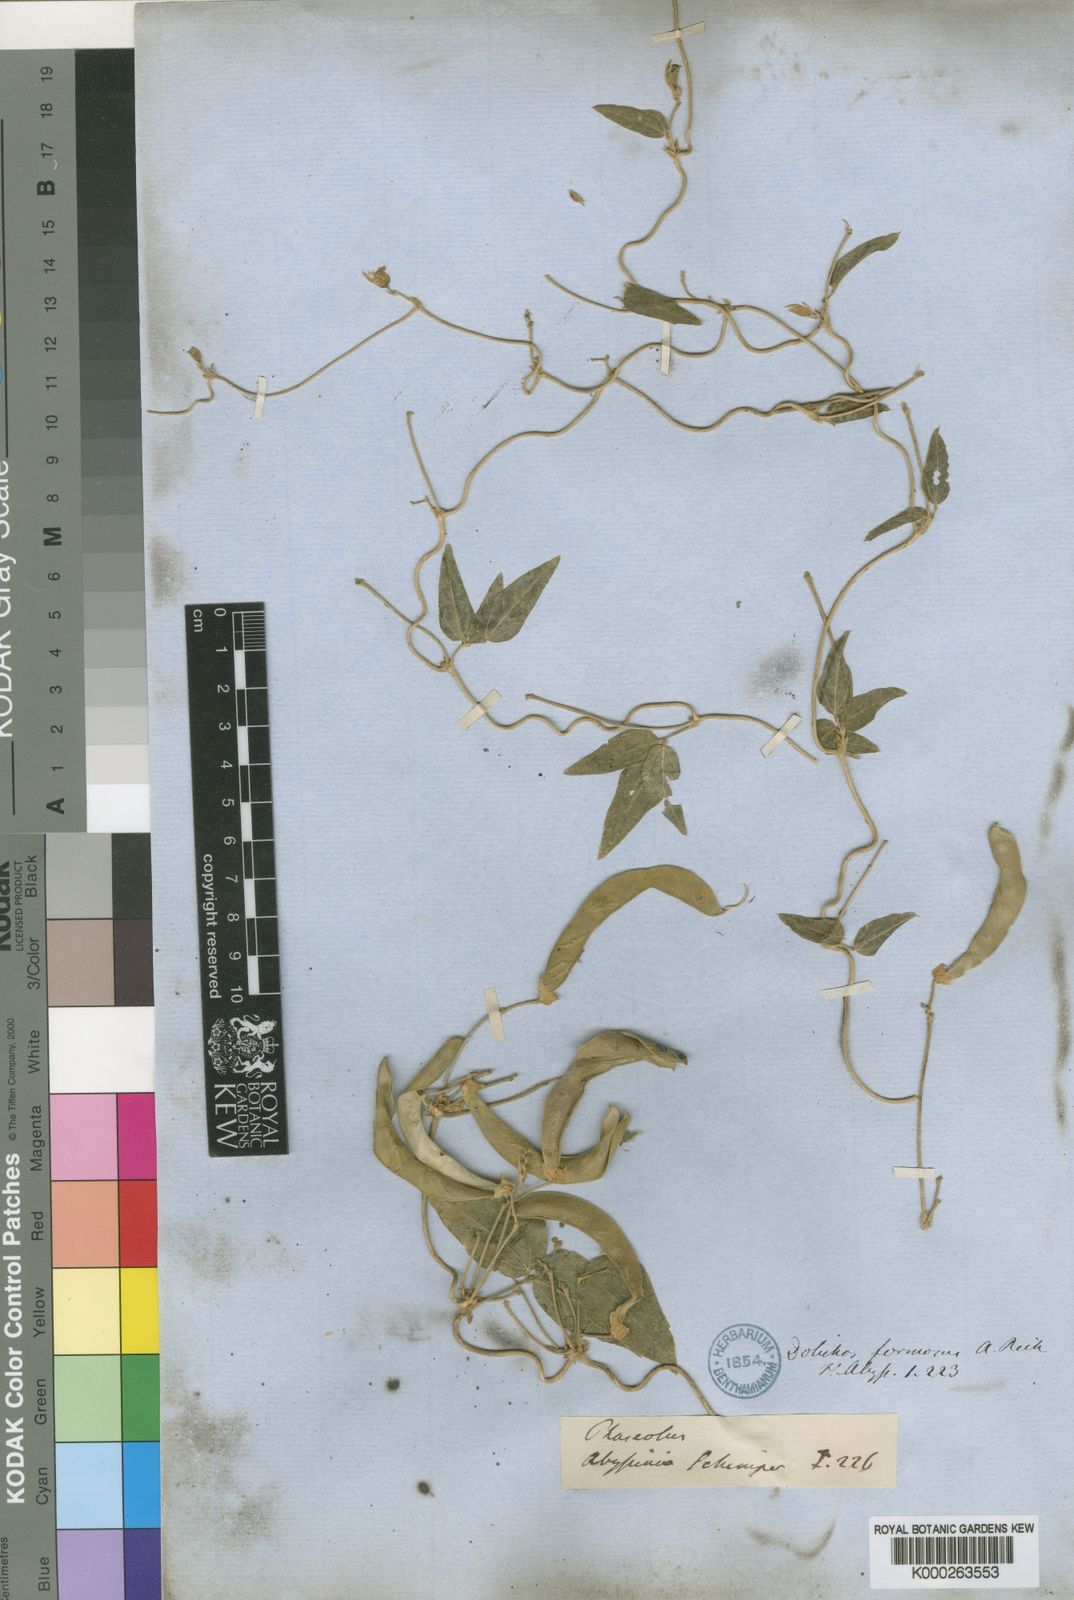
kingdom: Plantae
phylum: Tracheophyta
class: Magnoliopsida
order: Fabales
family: Fabaceae
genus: Dolichos
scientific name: Dolichos sericeus
